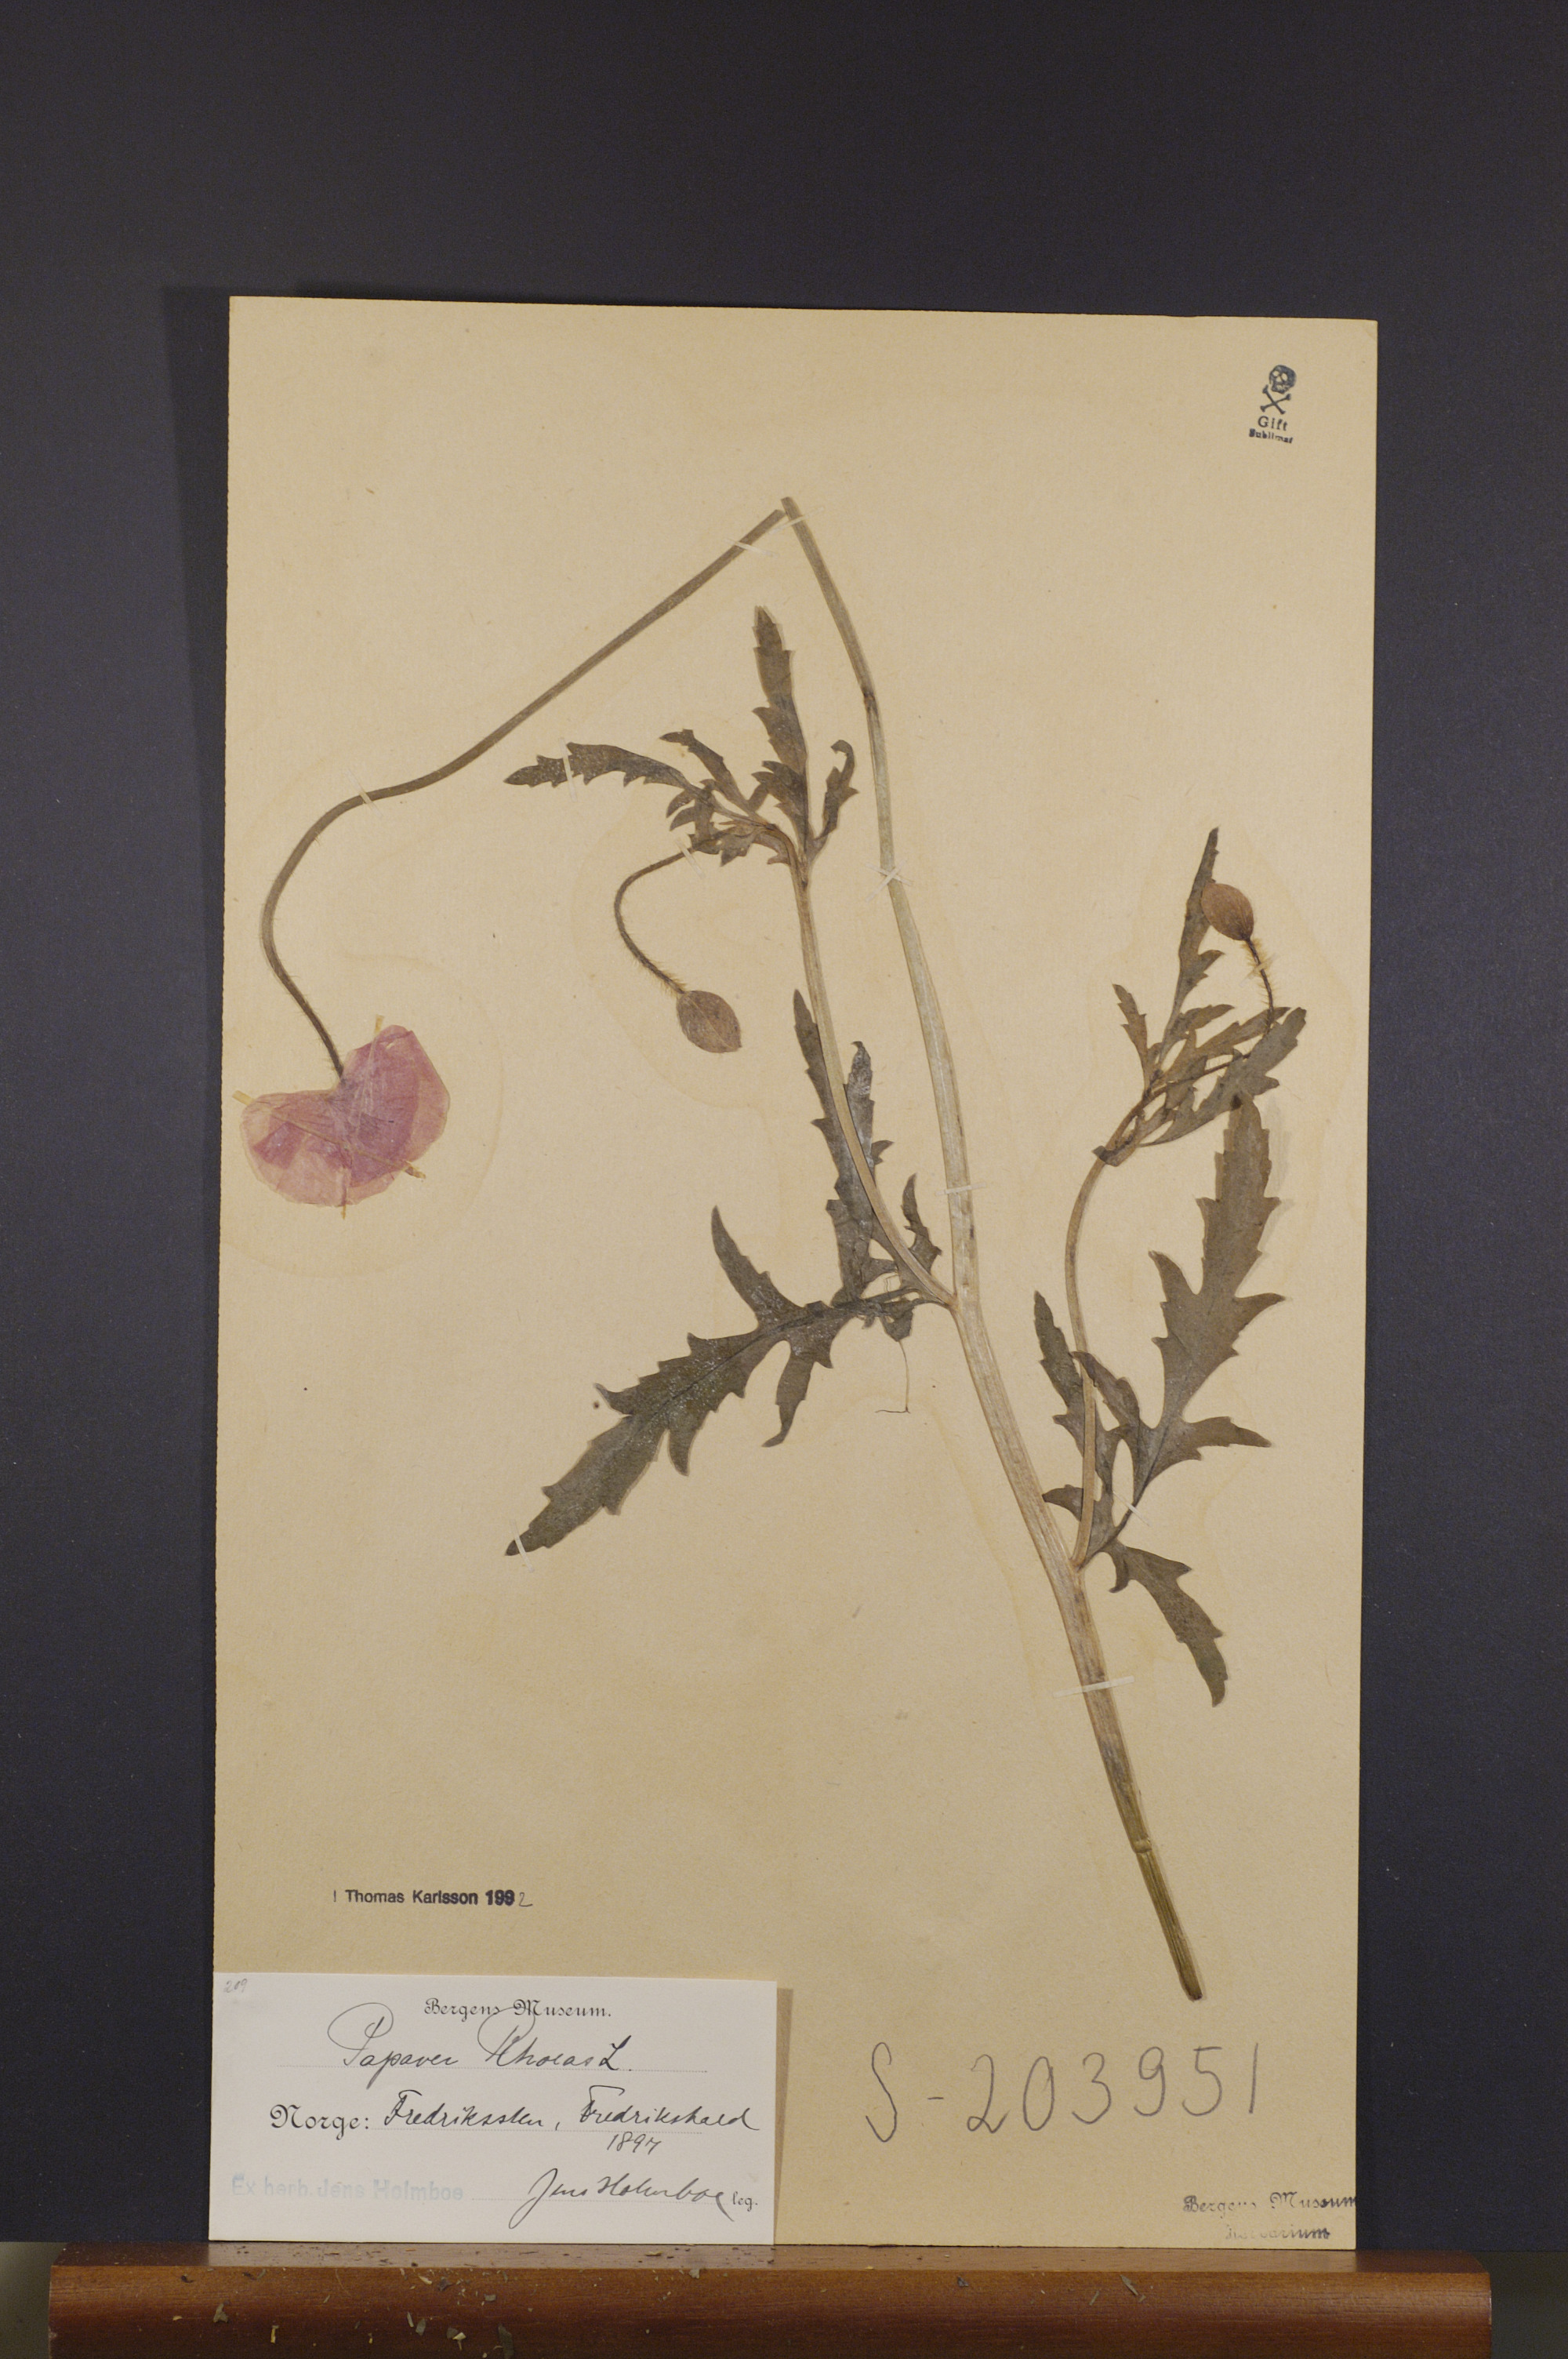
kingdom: Plantae
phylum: Tracheophyta
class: Magnoliopsida
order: Ranunculales
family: Papaveraceae
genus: Papaver
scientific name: Papaver rhoeas
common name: Corn poppy
